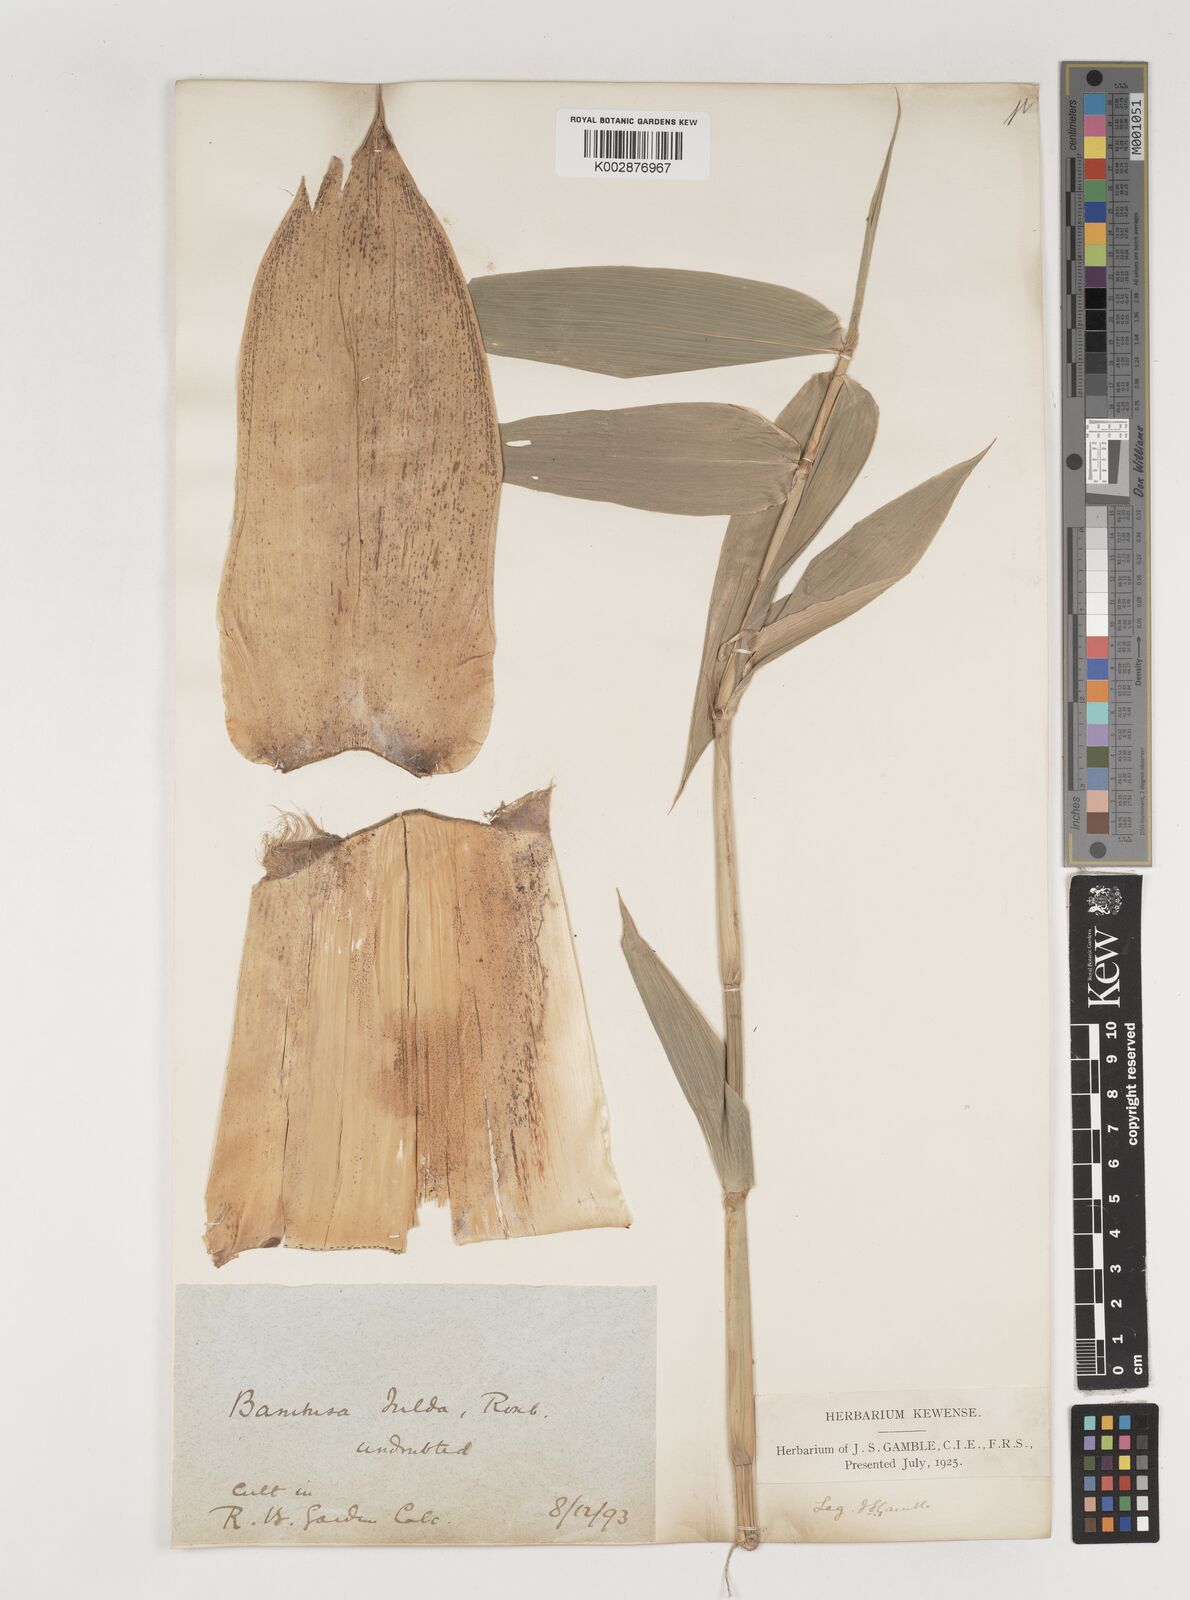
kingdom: Plantae
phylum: Tracheophyta
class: Liliopsida
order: Poales
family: Poaceae
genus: Bambusa
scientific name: Bambusa tulda
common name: Bengal bamboo
